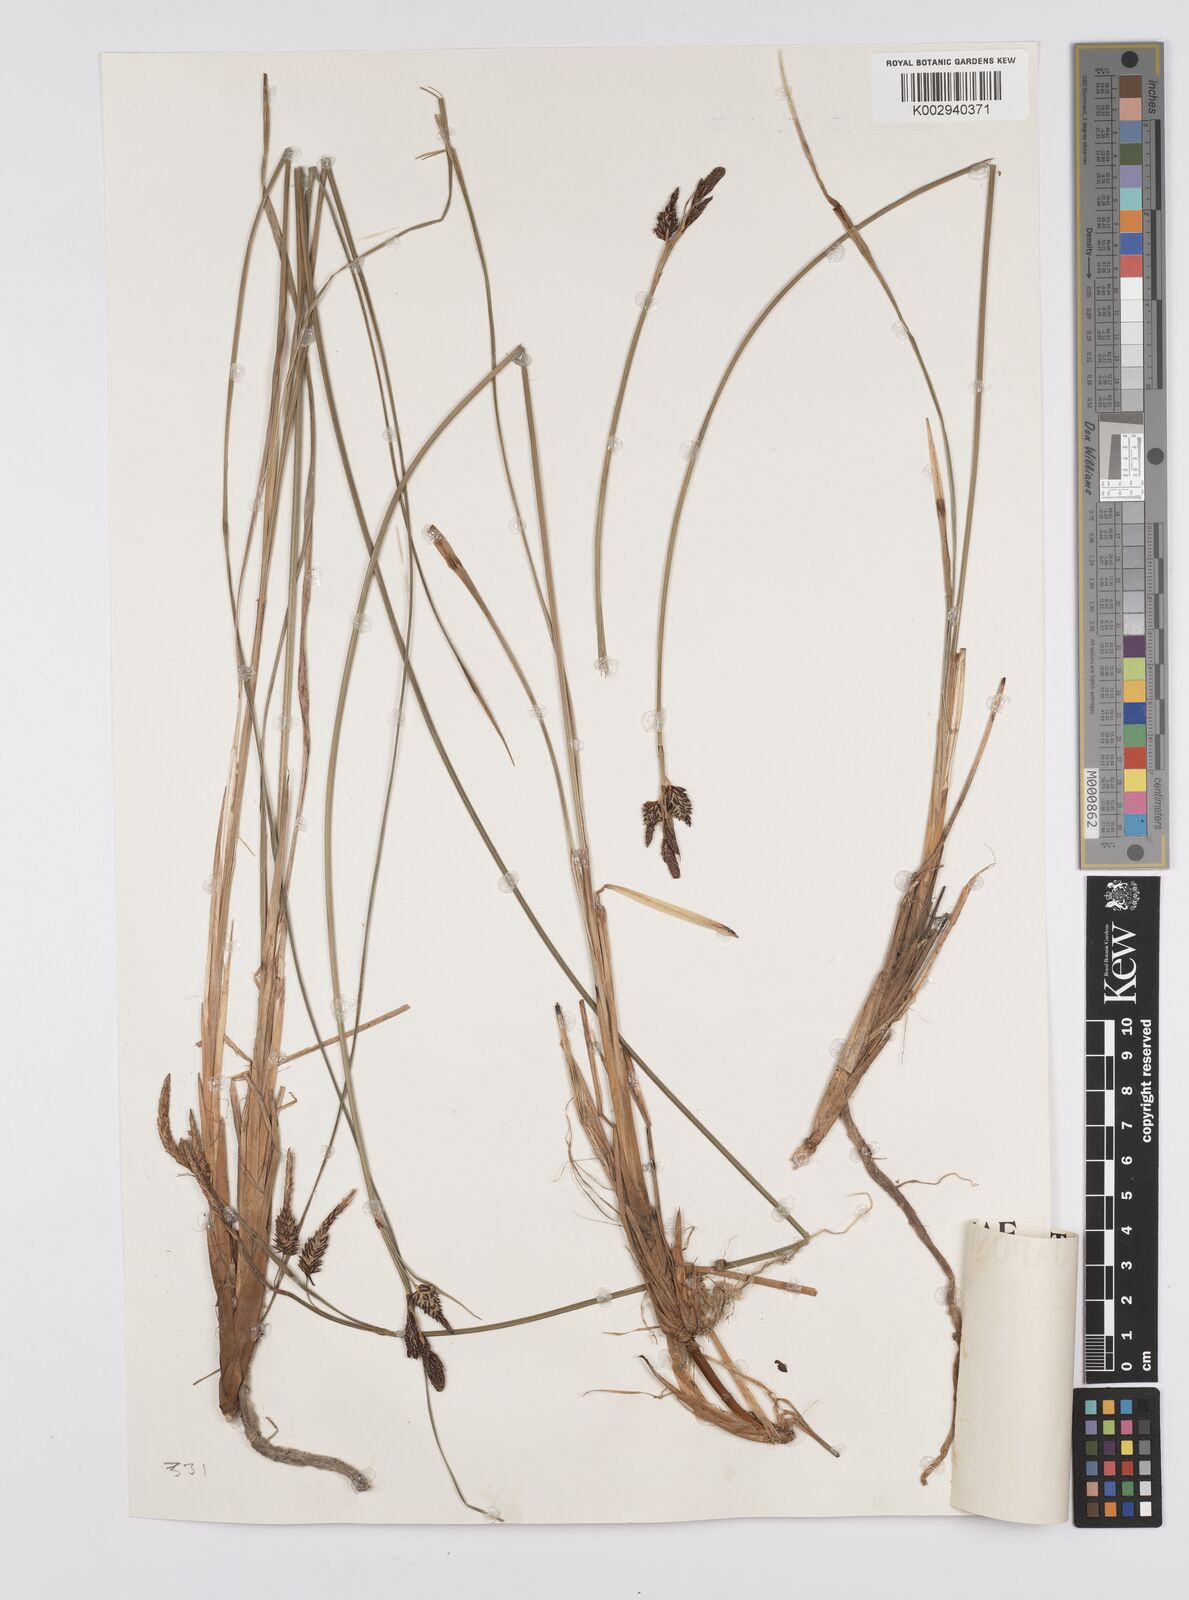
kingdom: Plantae
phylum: Tracheophyta
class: Liliopsida
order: Poales
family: Cyperaceae
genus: Carex
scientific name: Carex middendorffii
